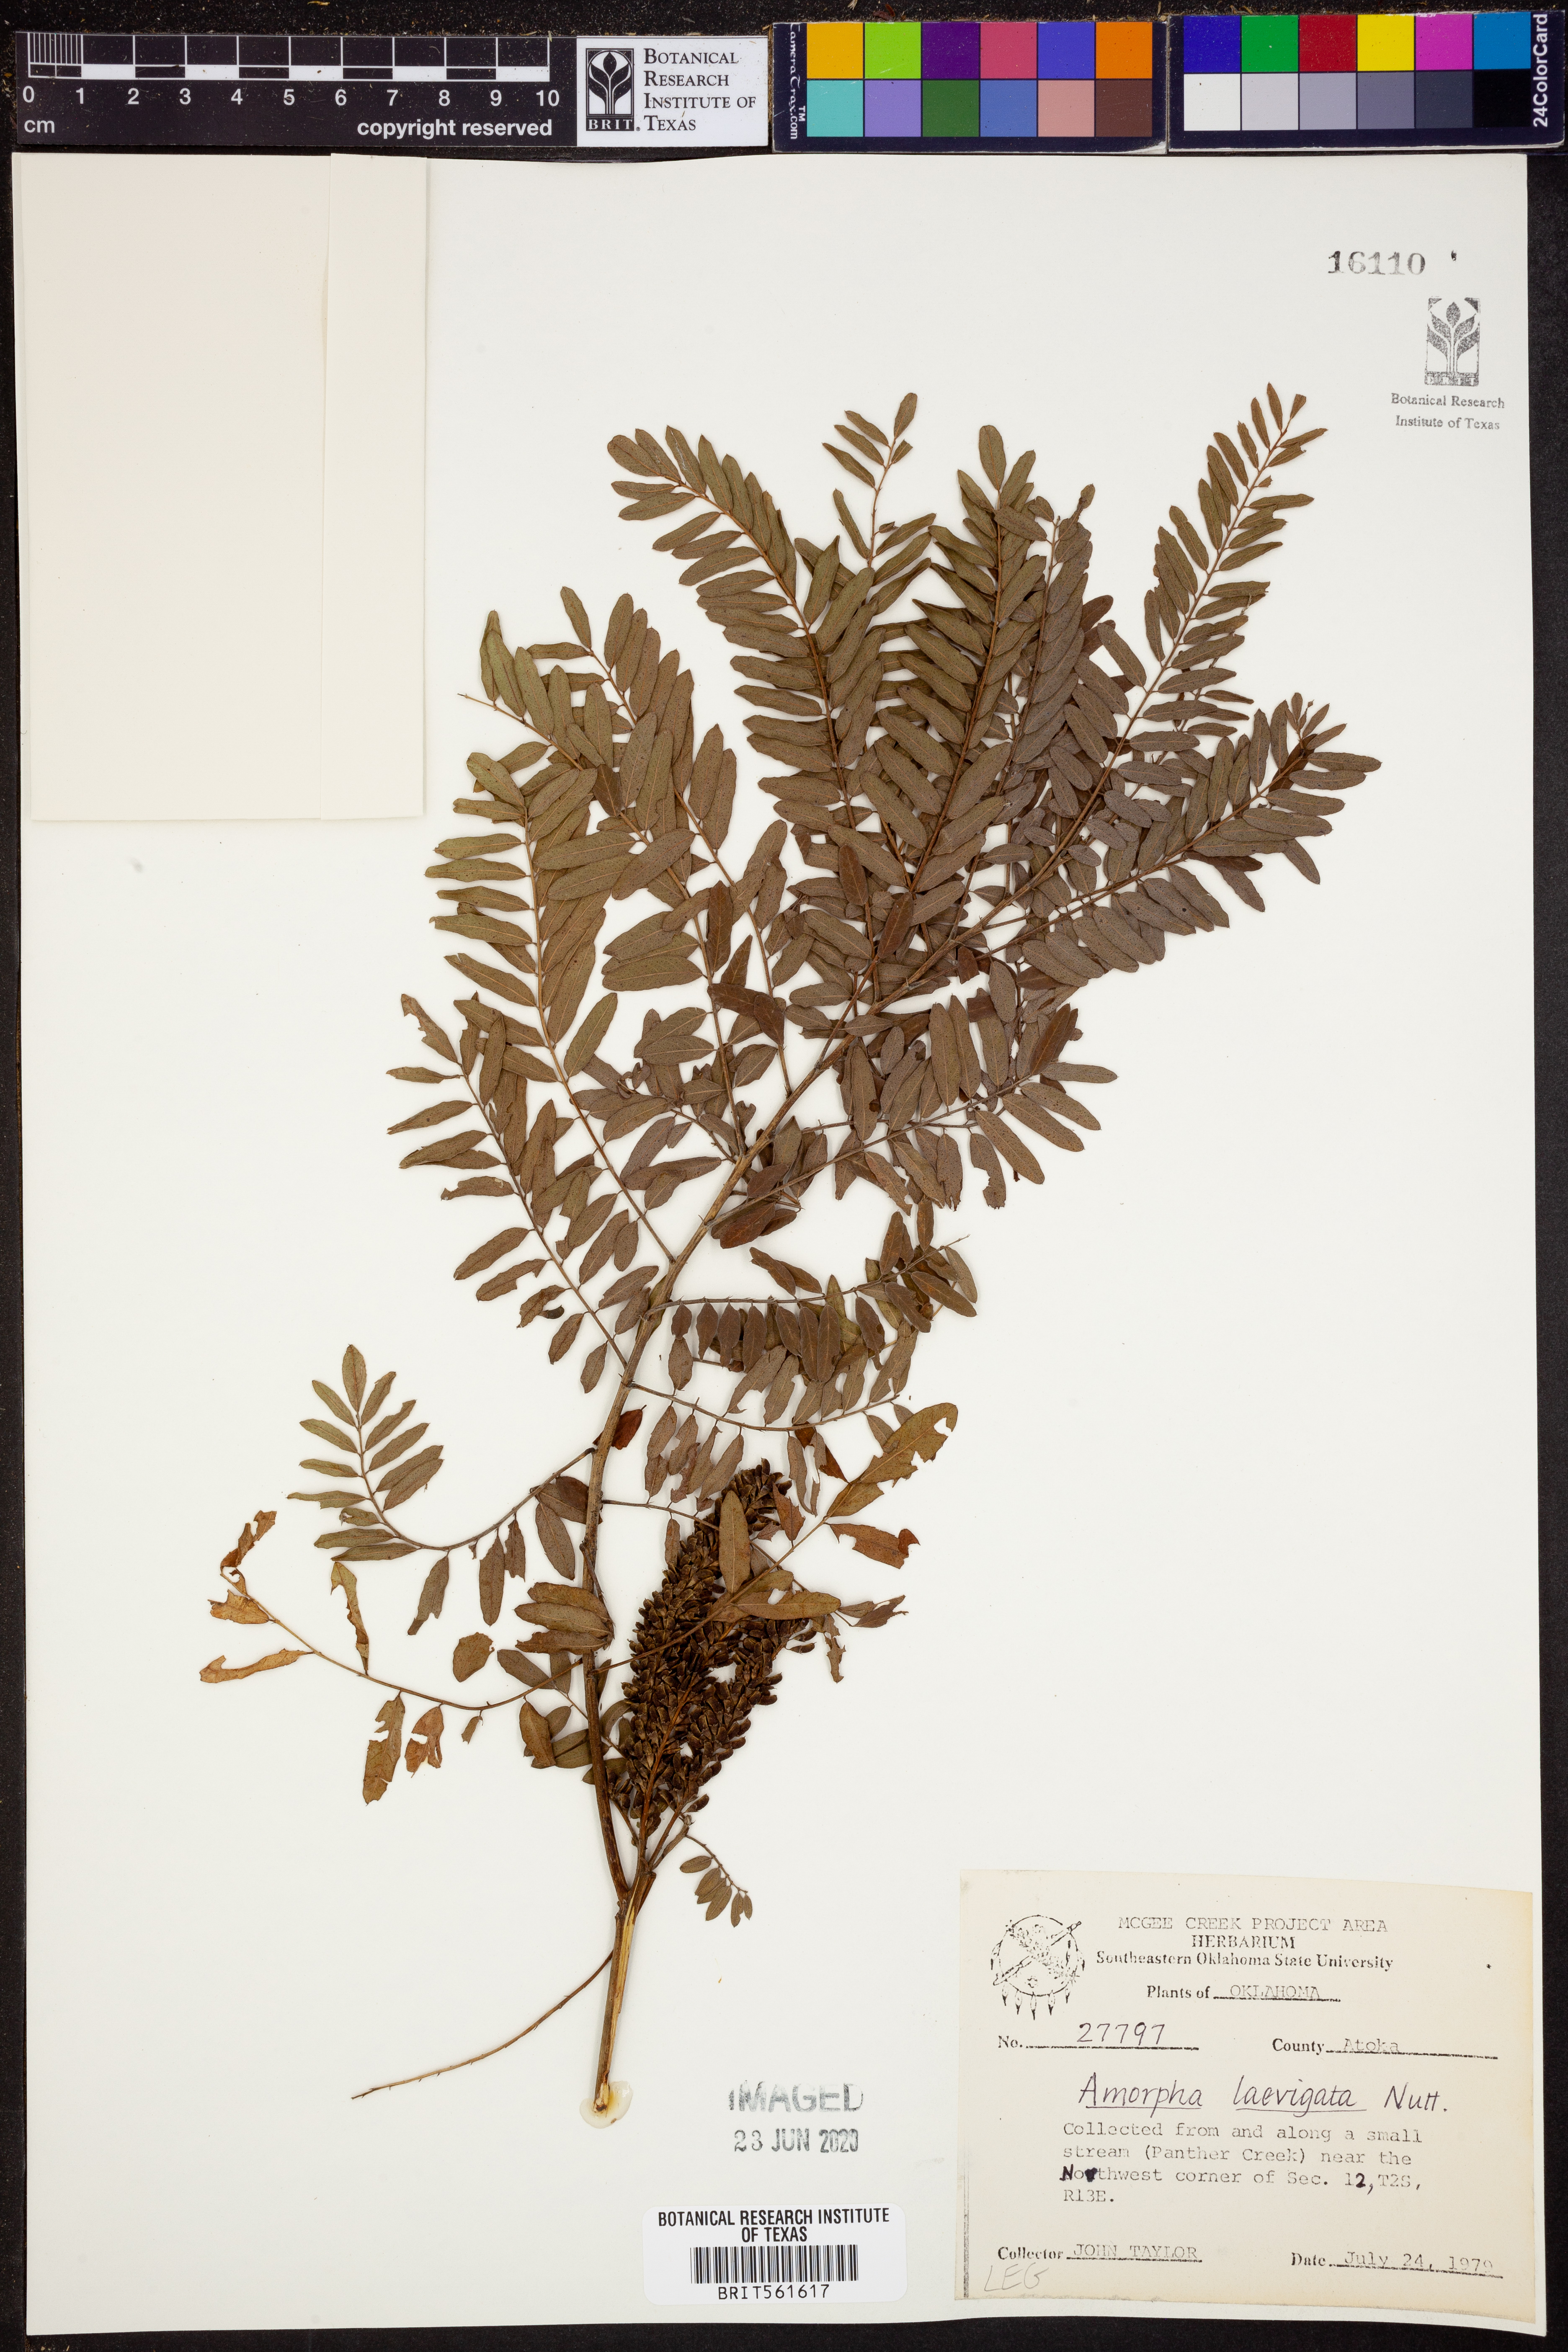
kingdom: Plantae
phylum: Tracheophyta
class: Magnoliopsida
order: Fabales
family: Fabaceae
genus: Amorpha
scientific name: Amorpha laevigata
